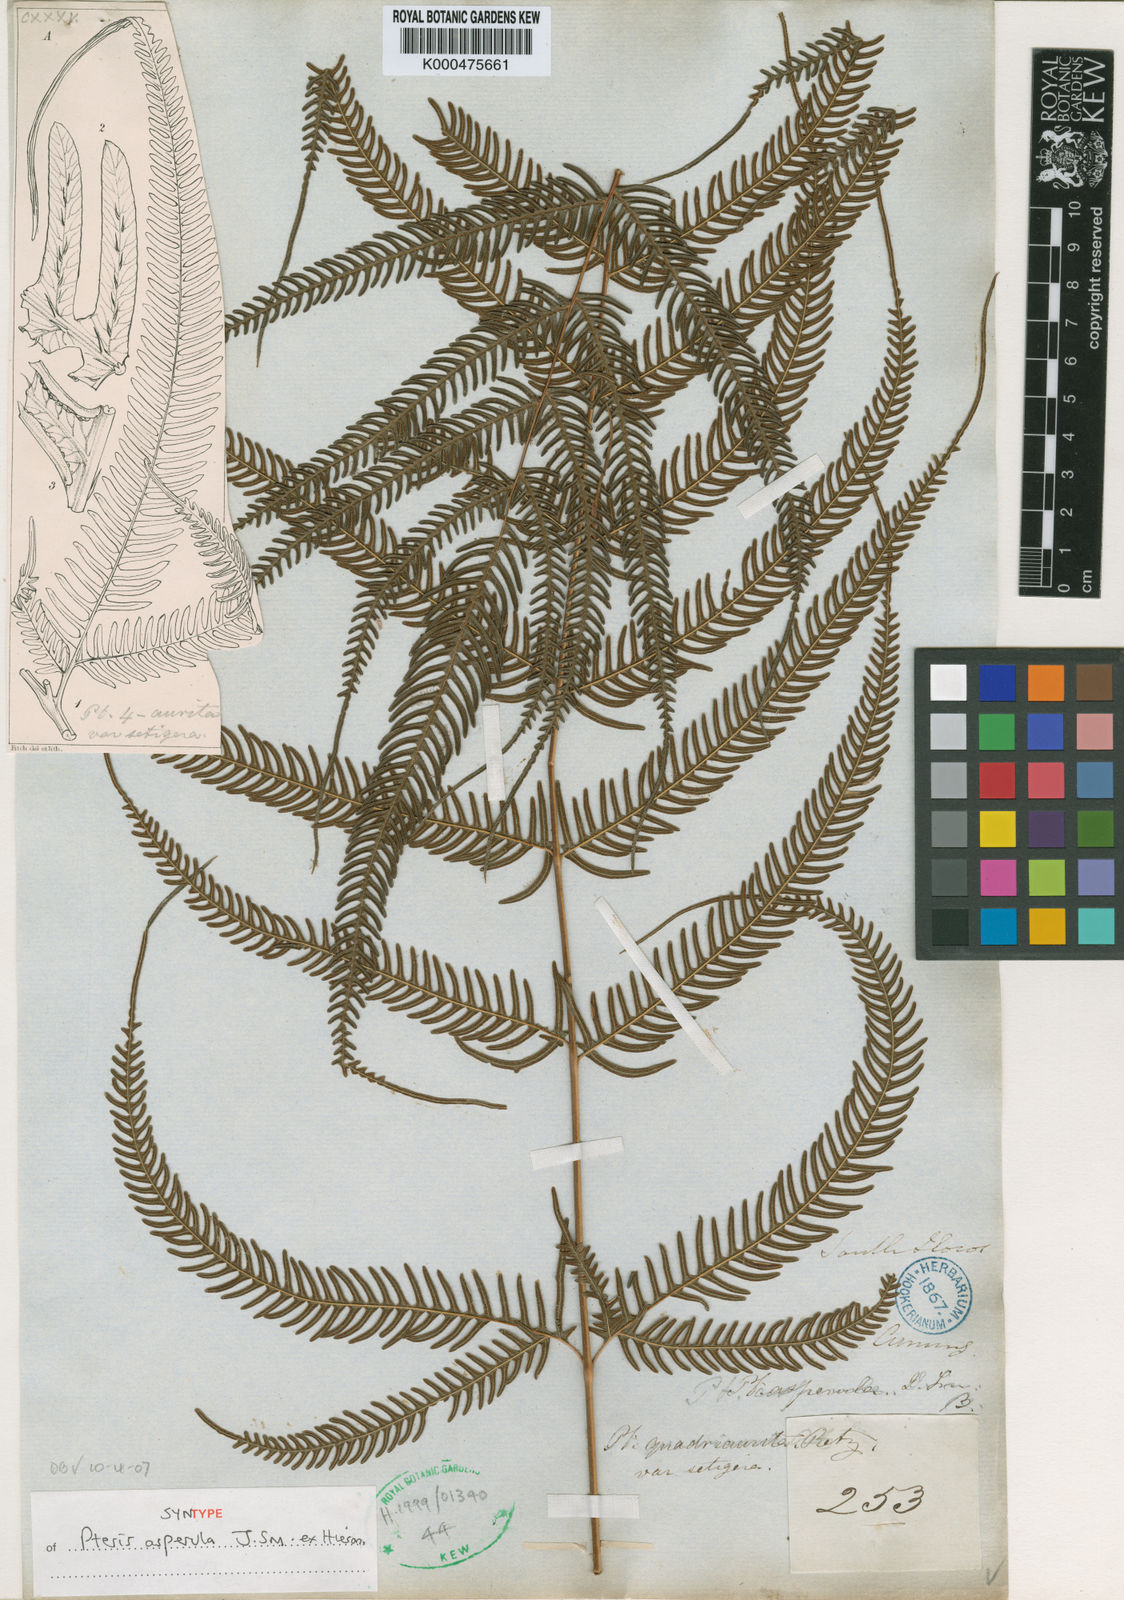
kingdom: Plantae
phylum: Tracheophyta
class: Polypodiopsida
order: Polypodiales
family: Pteridaceae
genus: Pteris
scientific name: Pteris oppositipinnata
